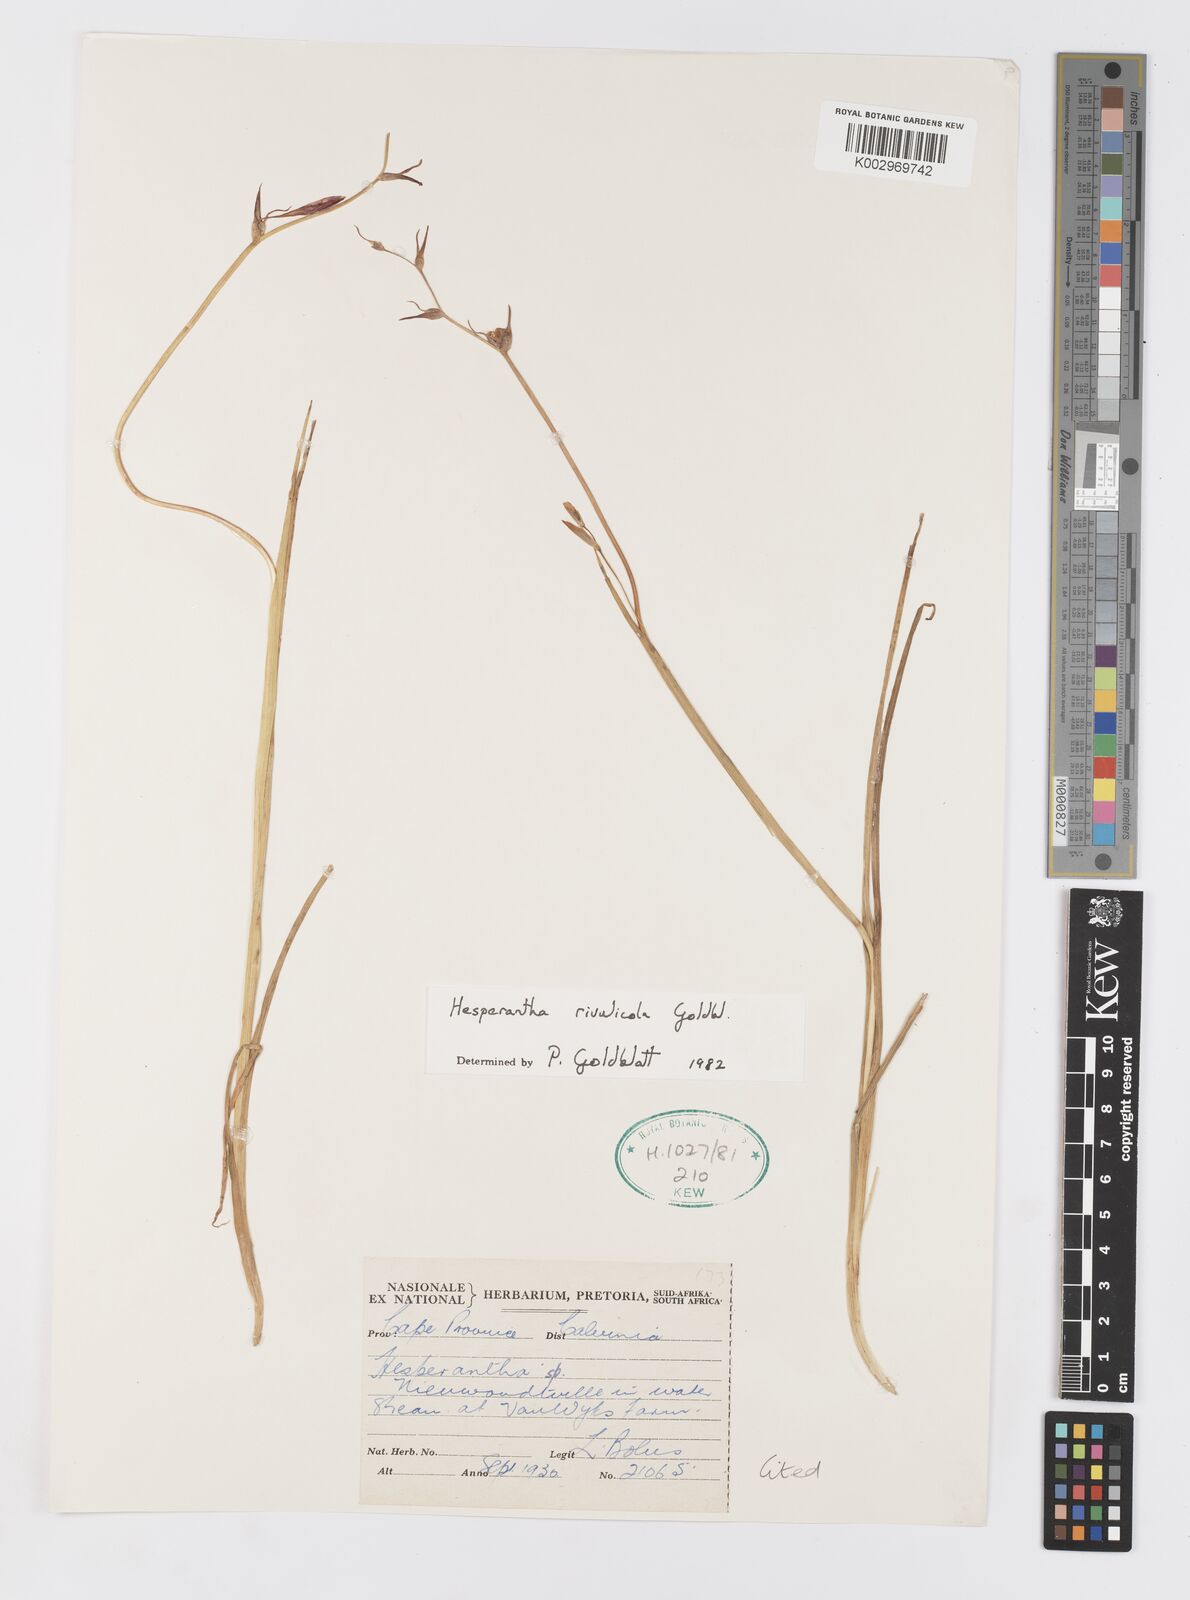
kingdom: Plantae
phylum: Tracheophyta
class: Liliopsida
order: Asparagales
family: Iridaceae
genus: Hesperantha
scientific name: Hesperantha rivulicola
